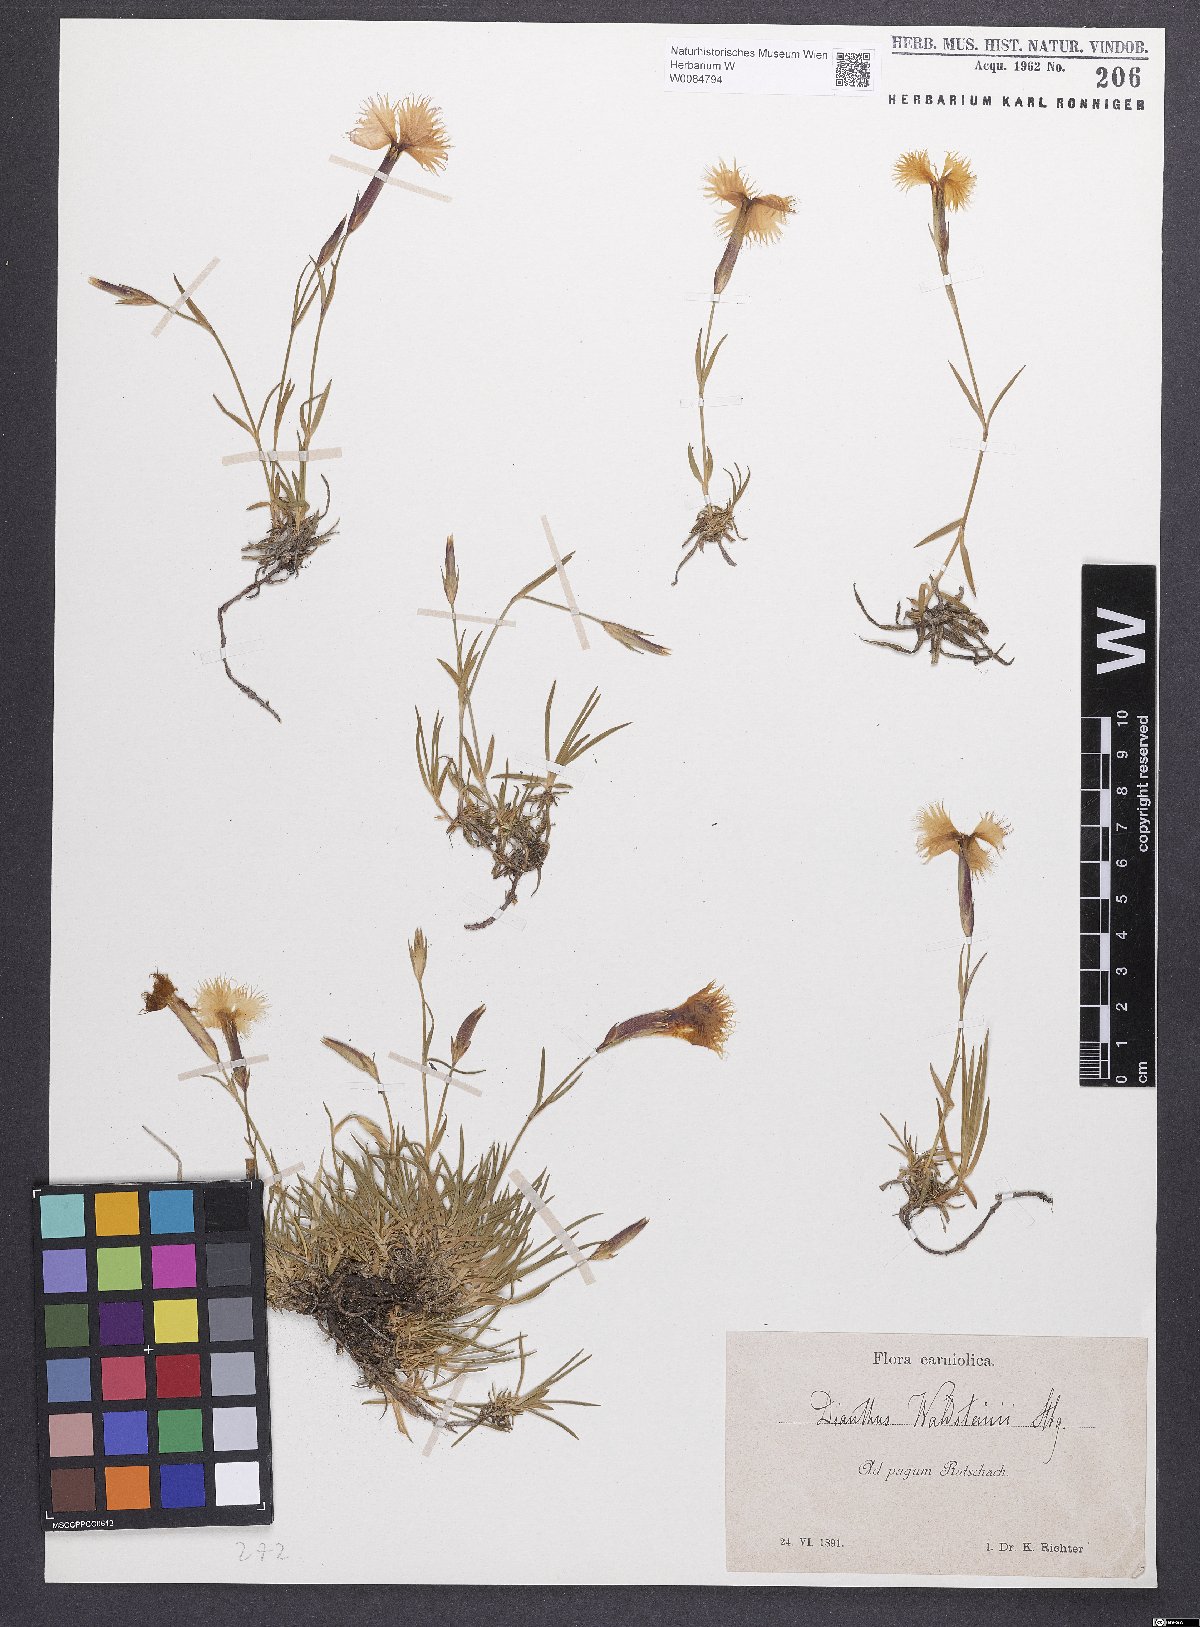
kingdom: Plantae
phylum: Tracheophyta
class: Magnoliopsida
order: Caryophyllales
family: Caryophyllaceae
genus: Dianthus
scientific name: Dianthus monspessulanus
